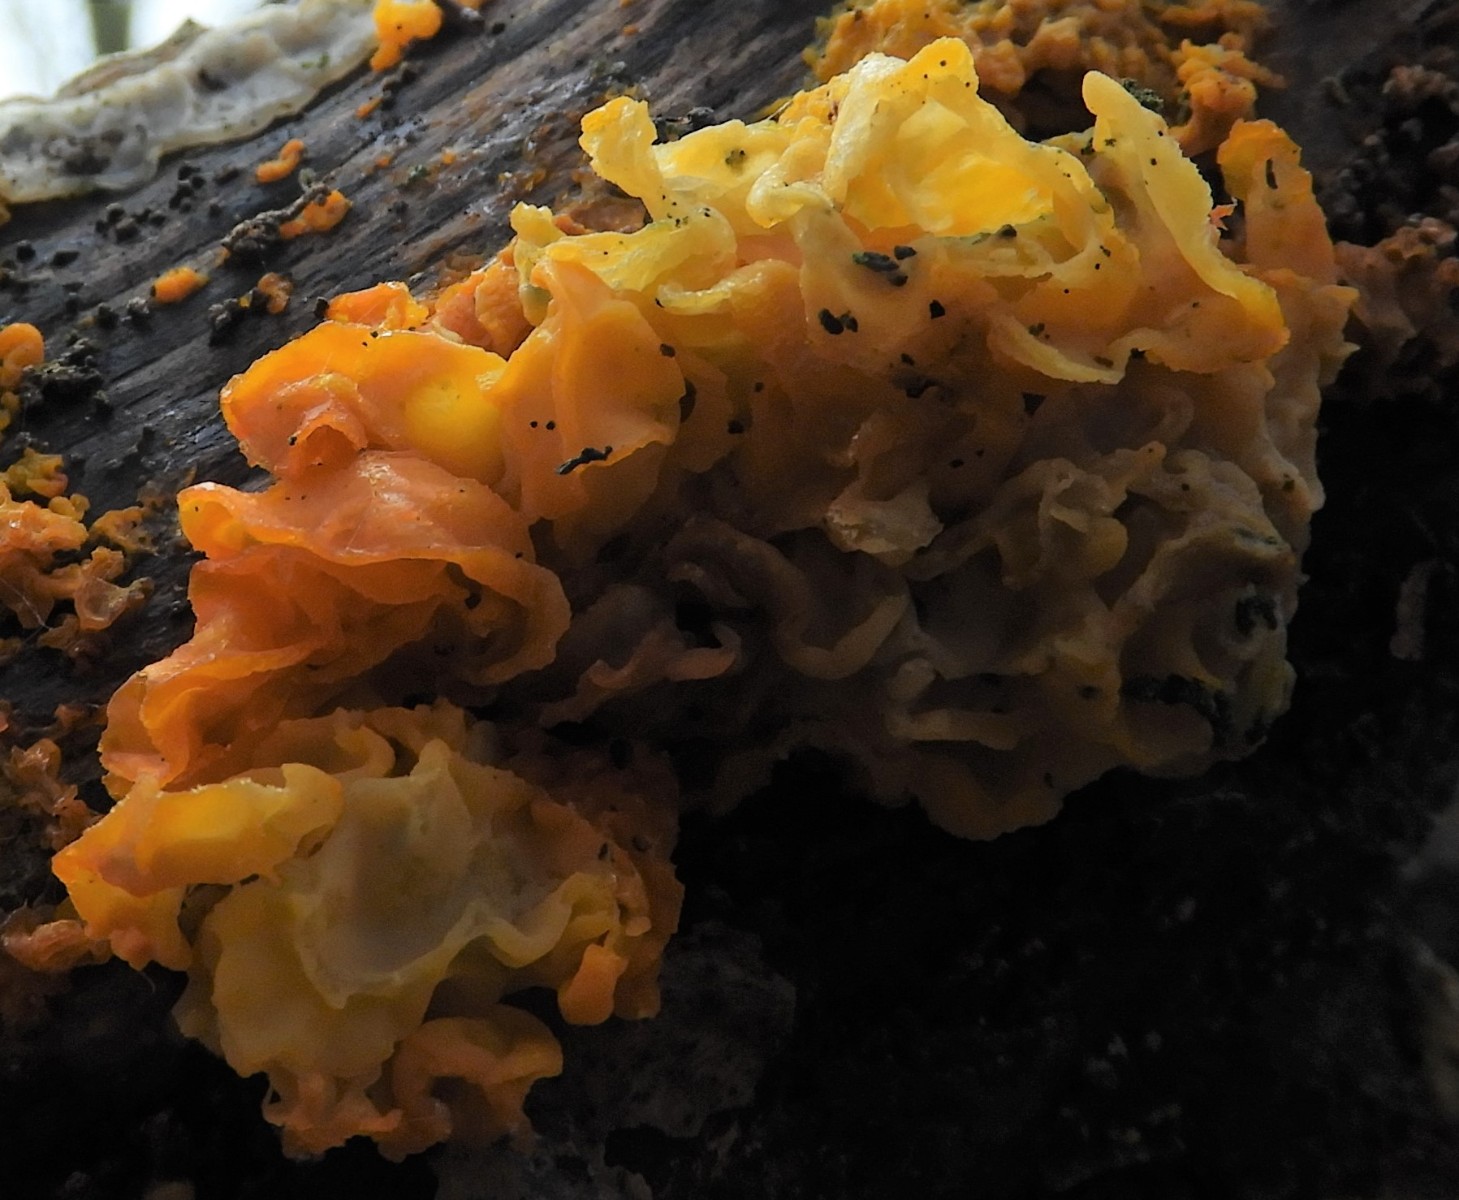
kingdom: Fungi
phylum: Basidiomycota
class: Tremellomycetes
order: Tremellales
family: Tremellaceae
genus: Tremella
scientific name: Tremella mesenterica
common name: gul bævresvamp
